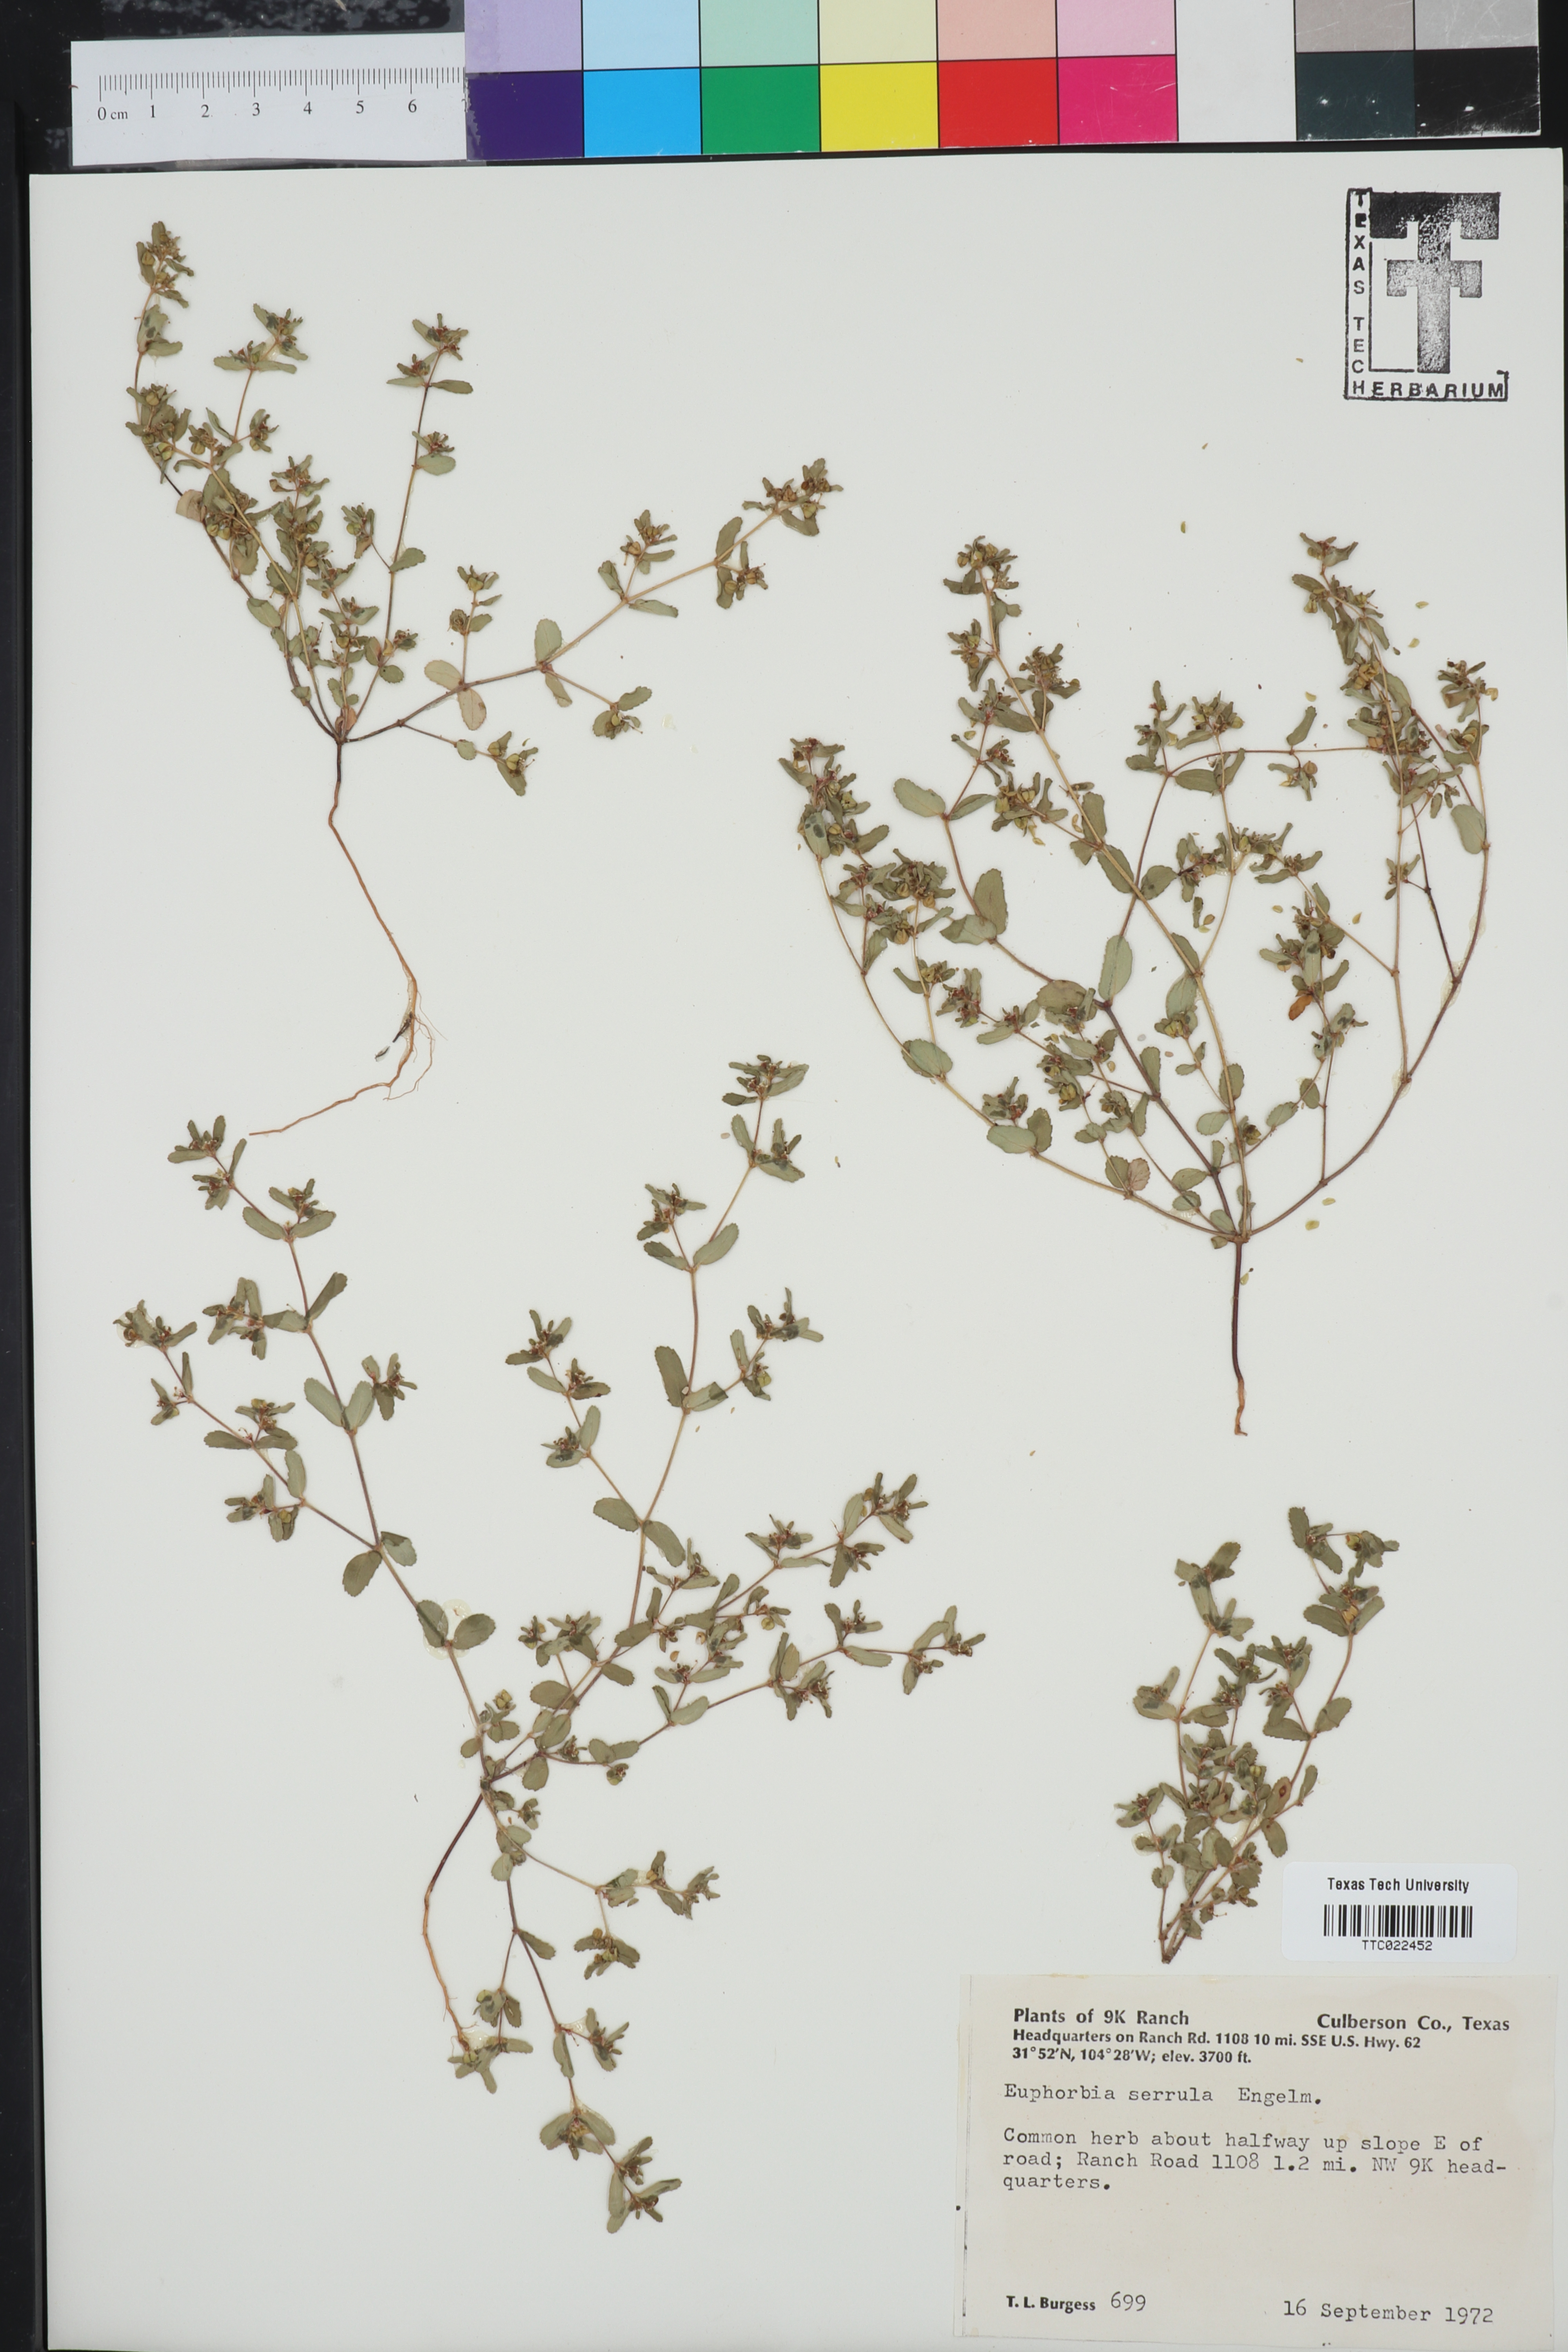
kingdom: Plantae
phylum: Tracheophyta
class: Magnoliopsida
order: Malpighiales
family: Euphorbiaceae
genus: Euphorbia
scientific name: Euphorbia serrula
